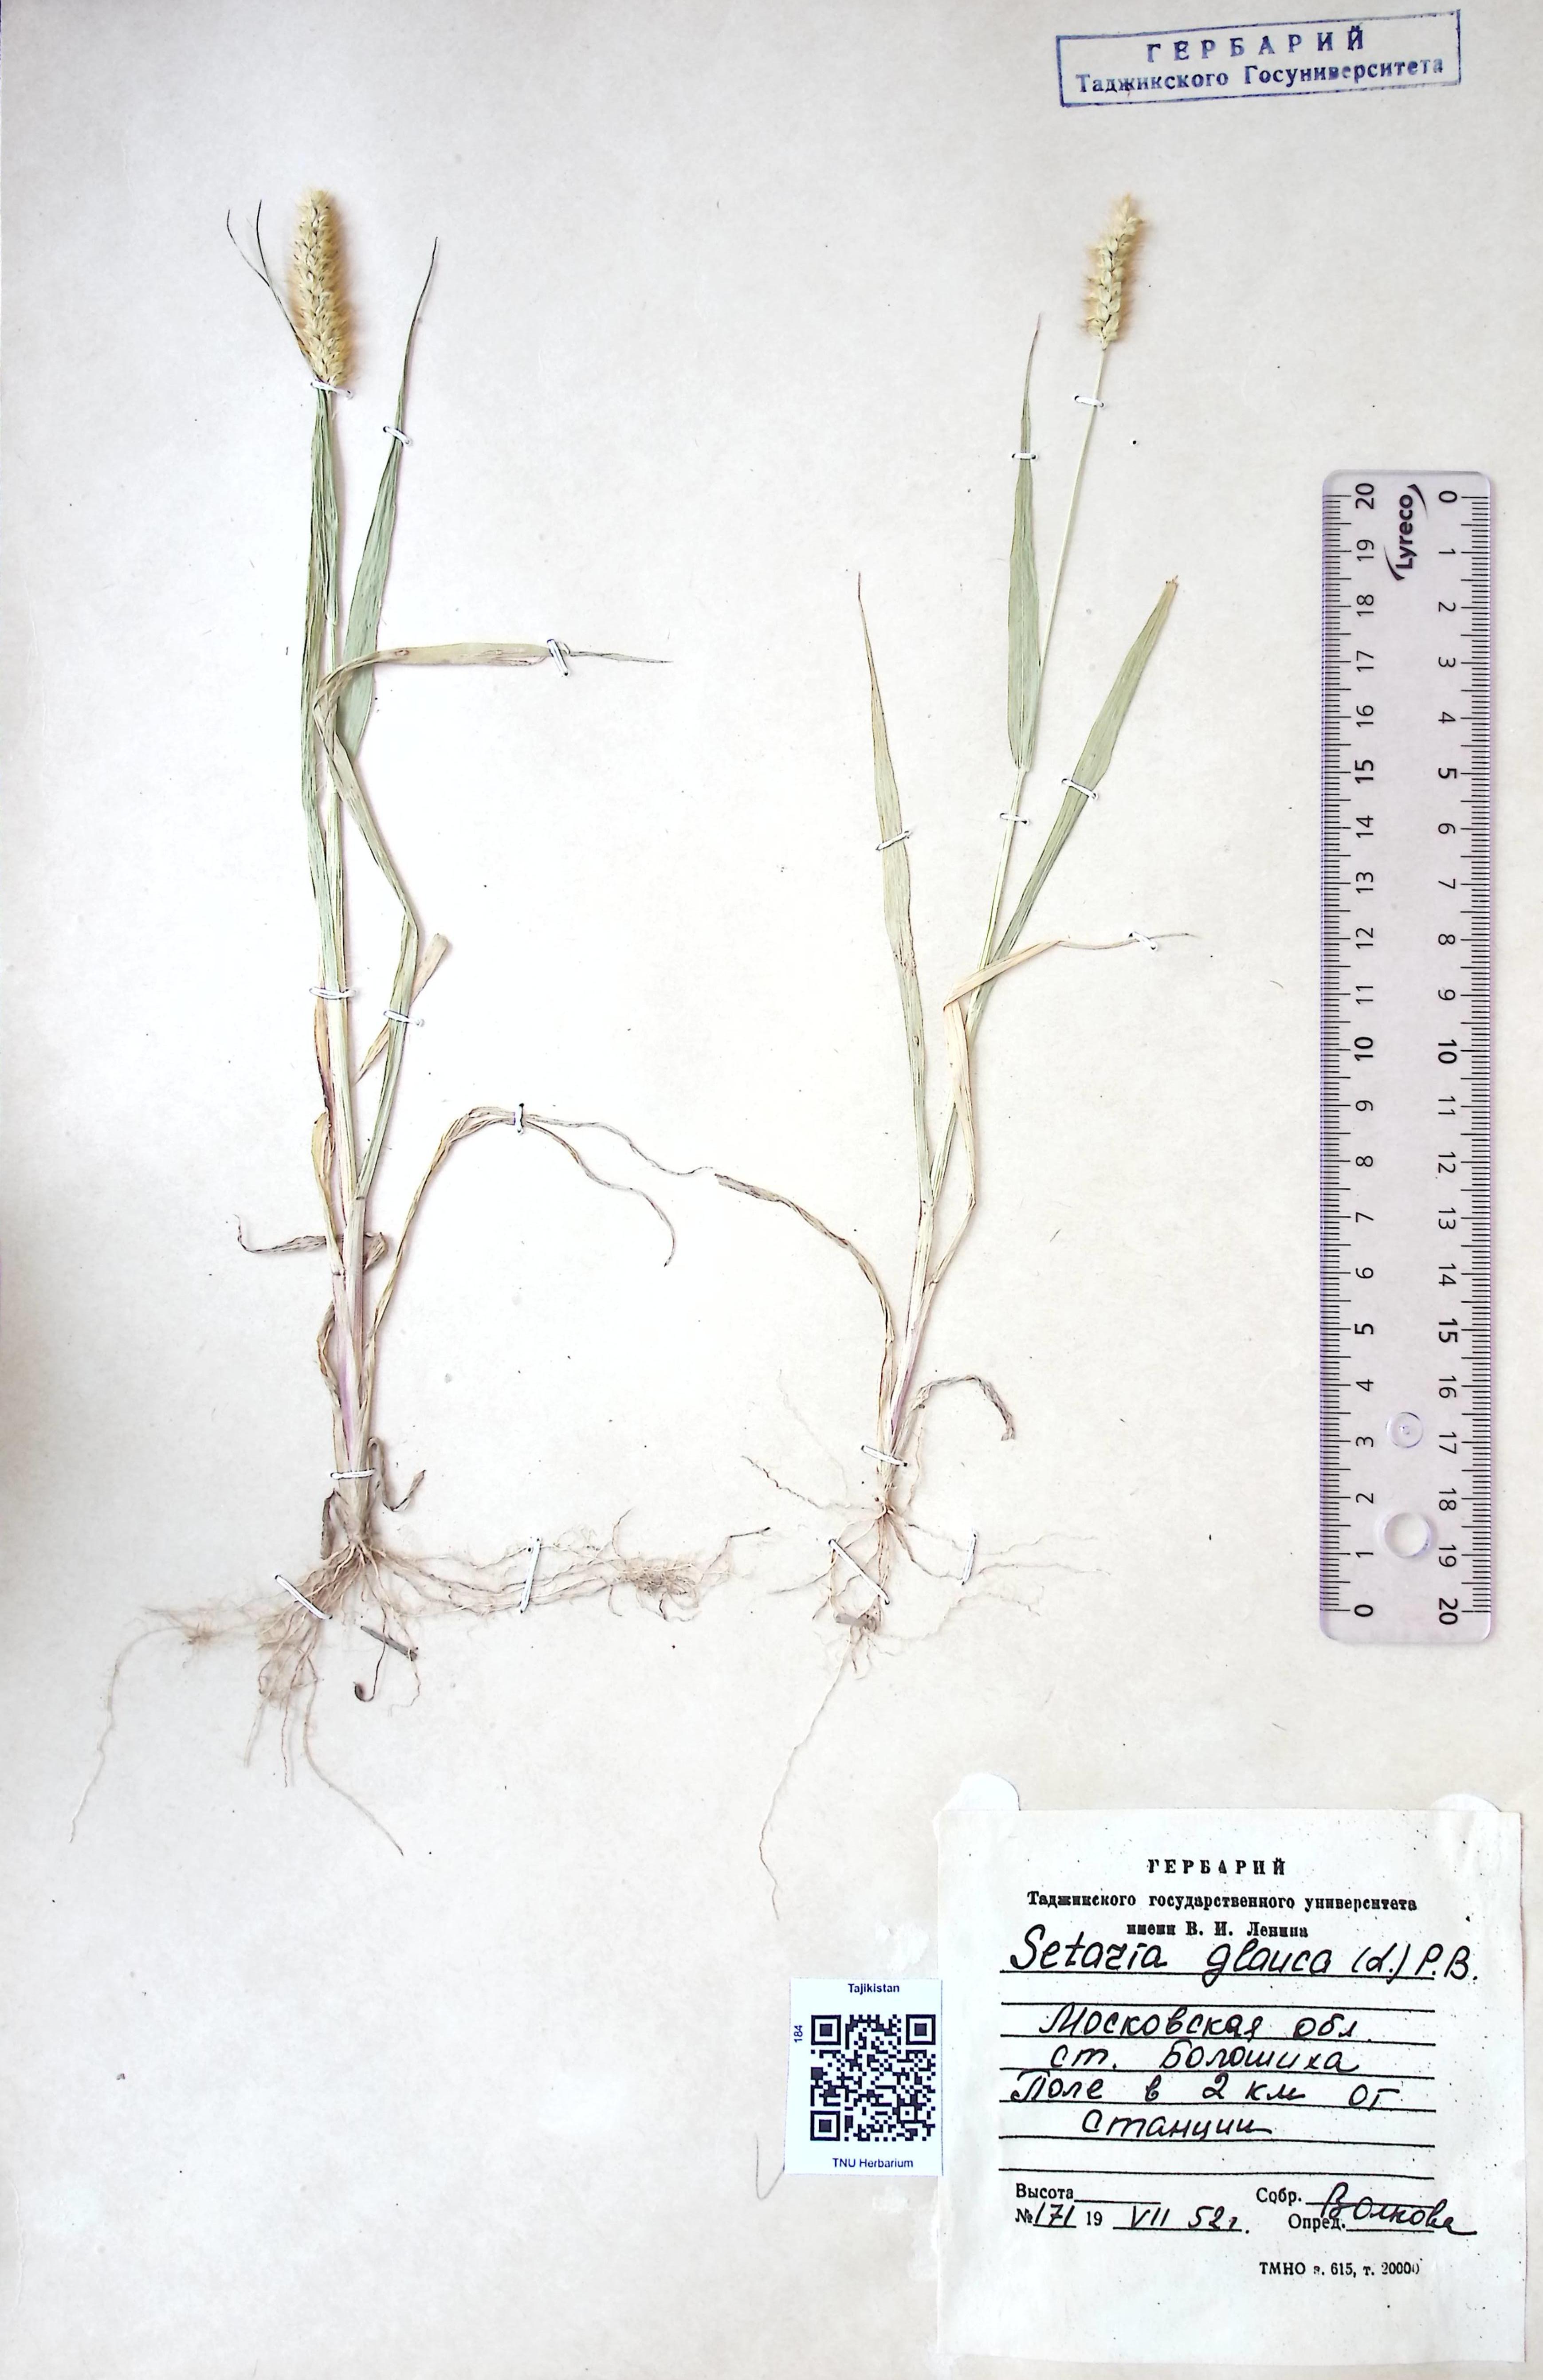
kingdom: Plantae
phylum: Tracheophyta
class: Liliopsida
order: Poales
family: Poaceae
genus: Setaria
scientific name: Setaria glauca
